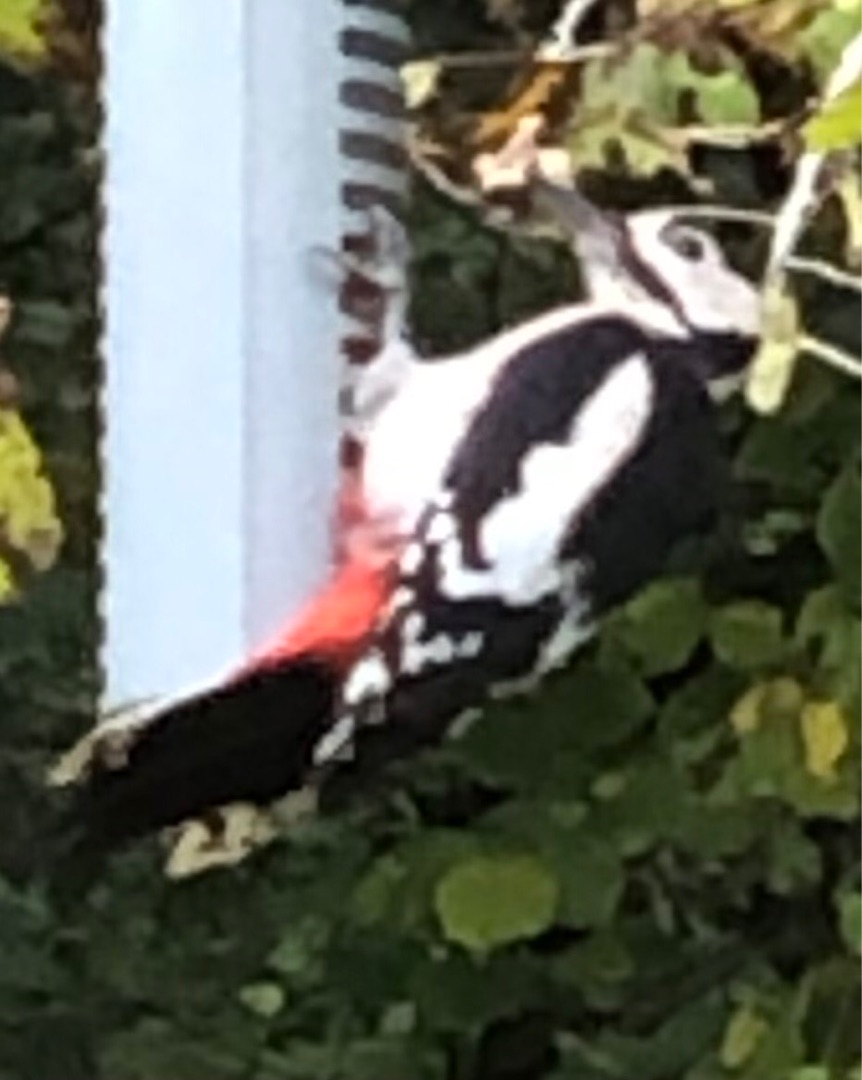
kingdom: Animalia
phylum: Chordata
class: Aves
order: Piciformes
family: Picidae
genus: Dendrocopos
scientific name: Dendrocopos major
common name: Stor flagspætte
